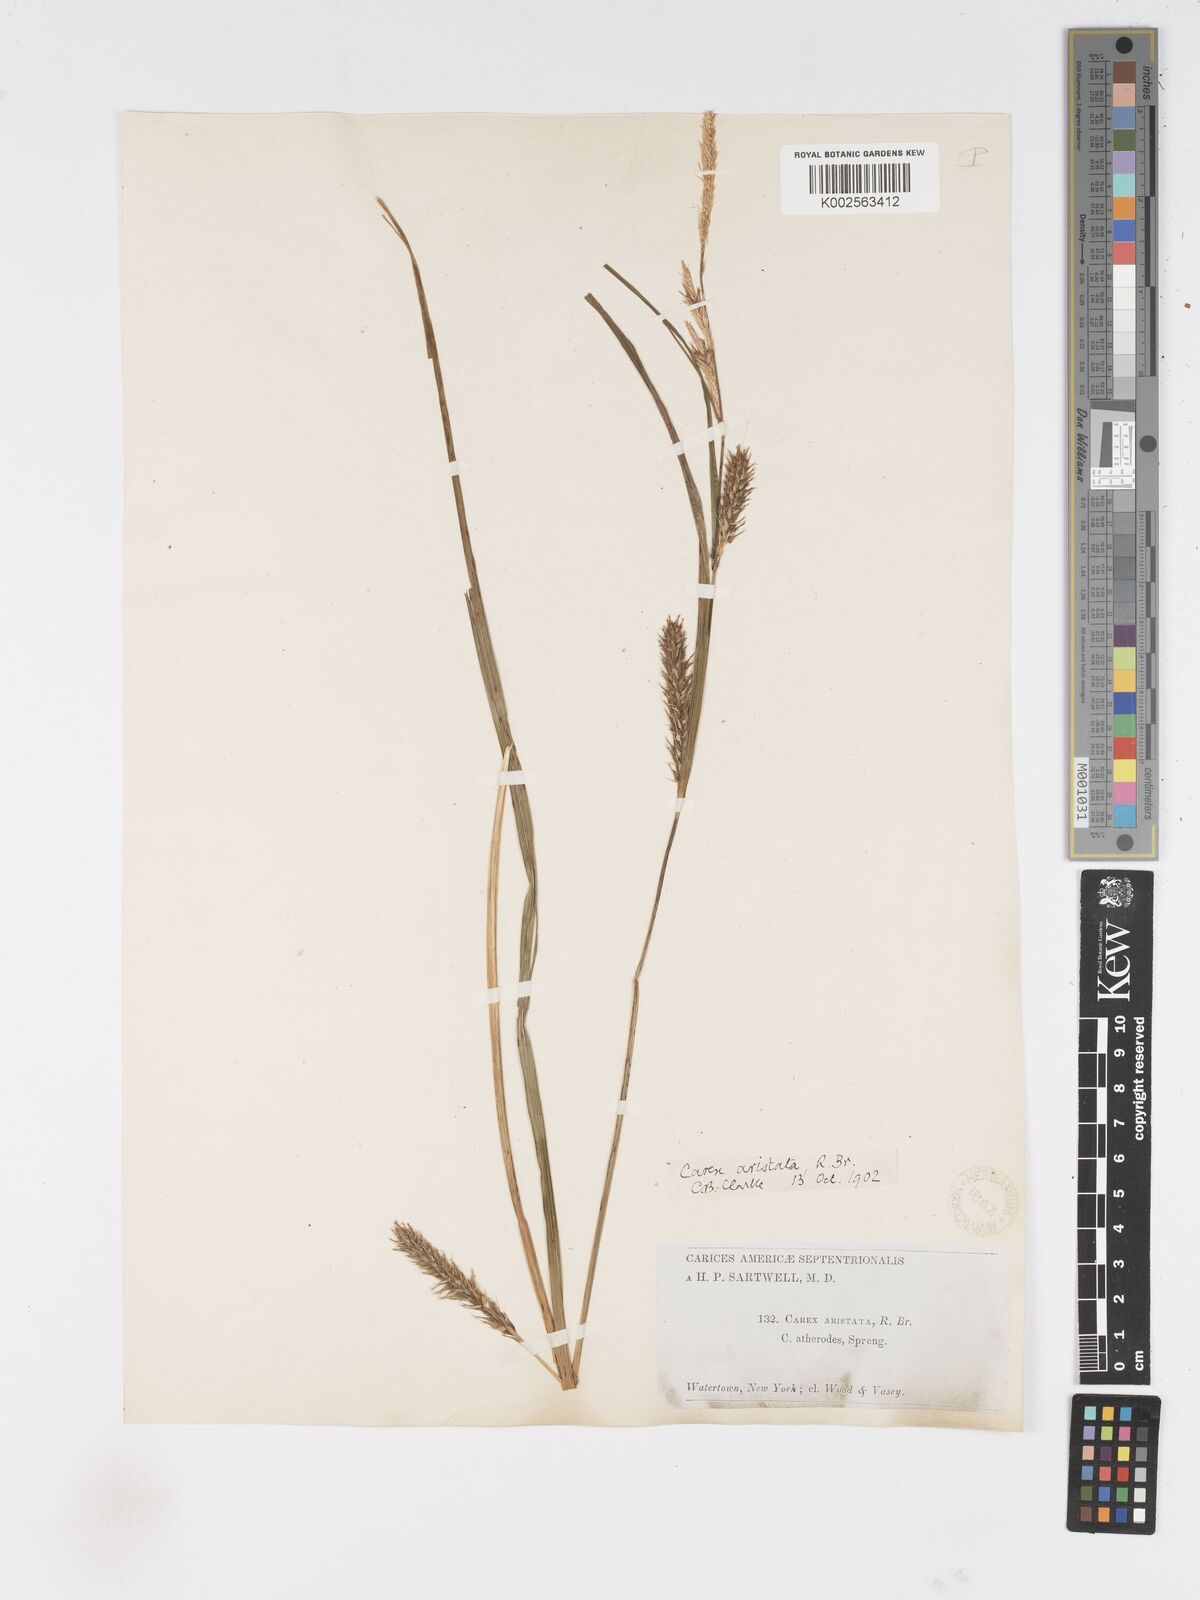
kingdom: Plantae
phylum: Tracheophyta
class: Liliopsida
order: Poales
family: Cyperaceae
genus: Carex
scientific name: Carex atherodes
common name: Wheat sedge
